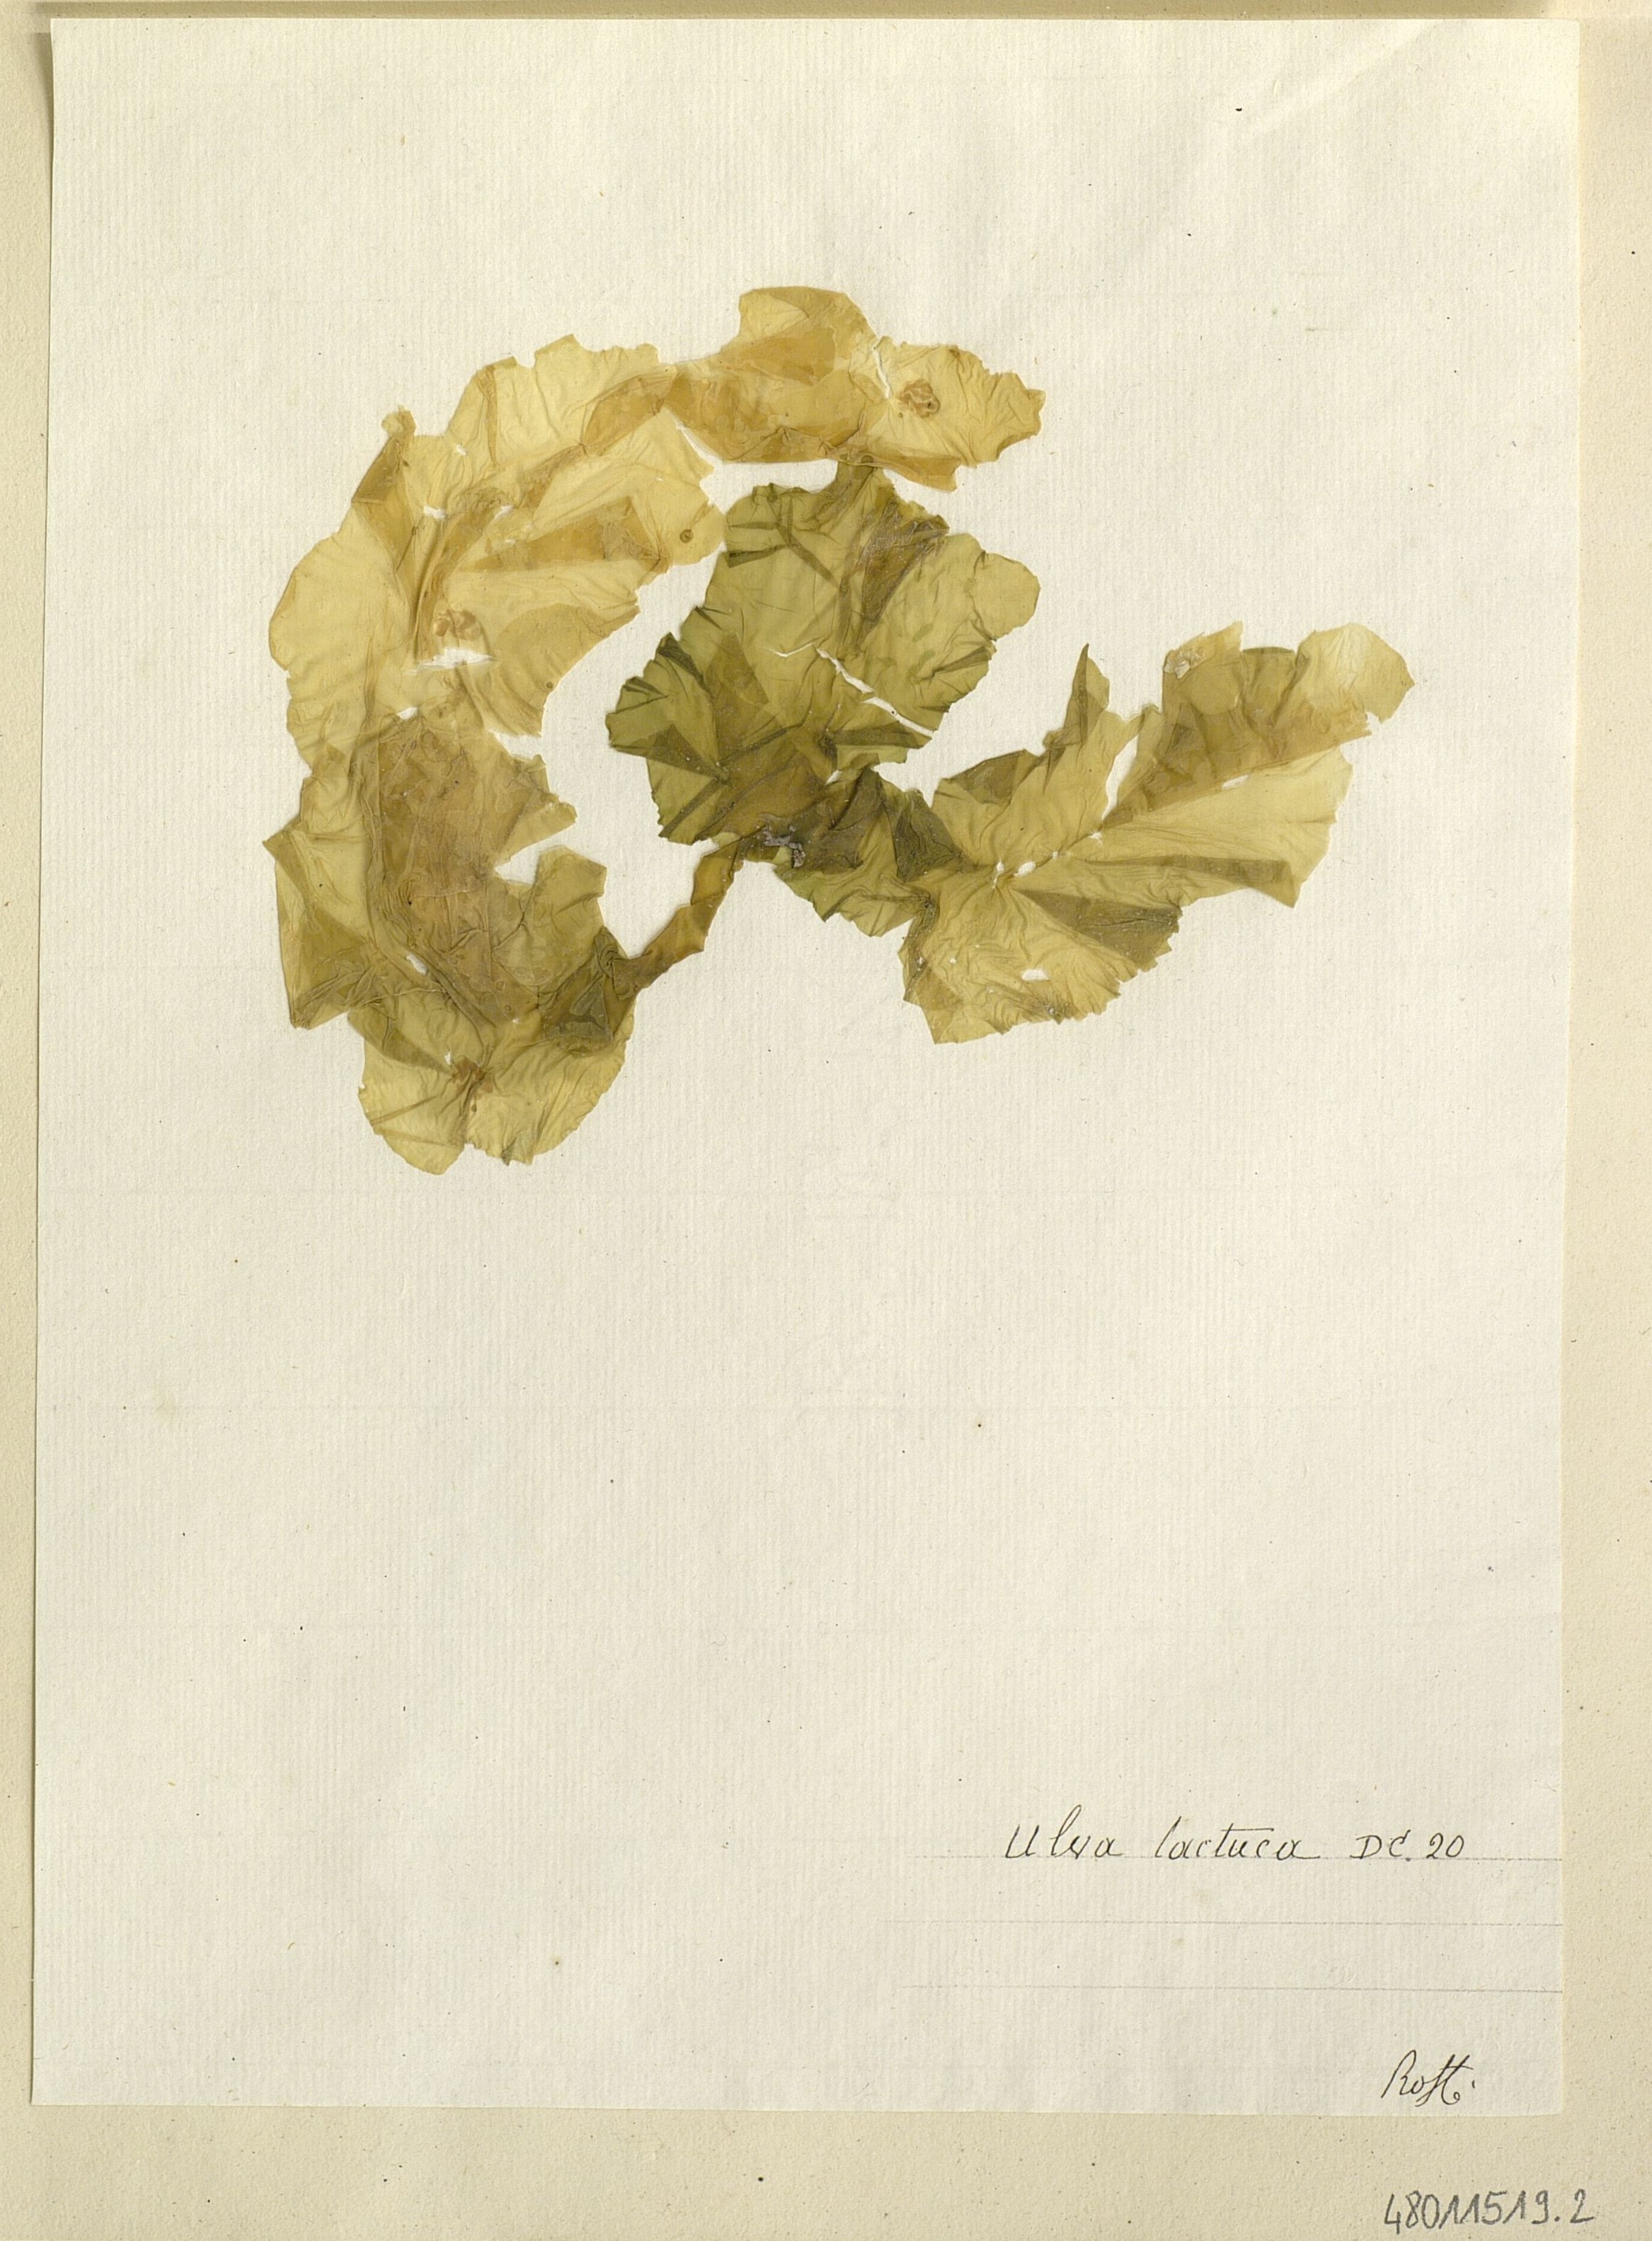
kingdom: Plantae
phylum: Chlorophyta
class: Ulvophyceae
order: Ulvales
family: Ulvaceae
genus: Ulva
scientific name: Ulva lactuca
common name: Sea lettuce
